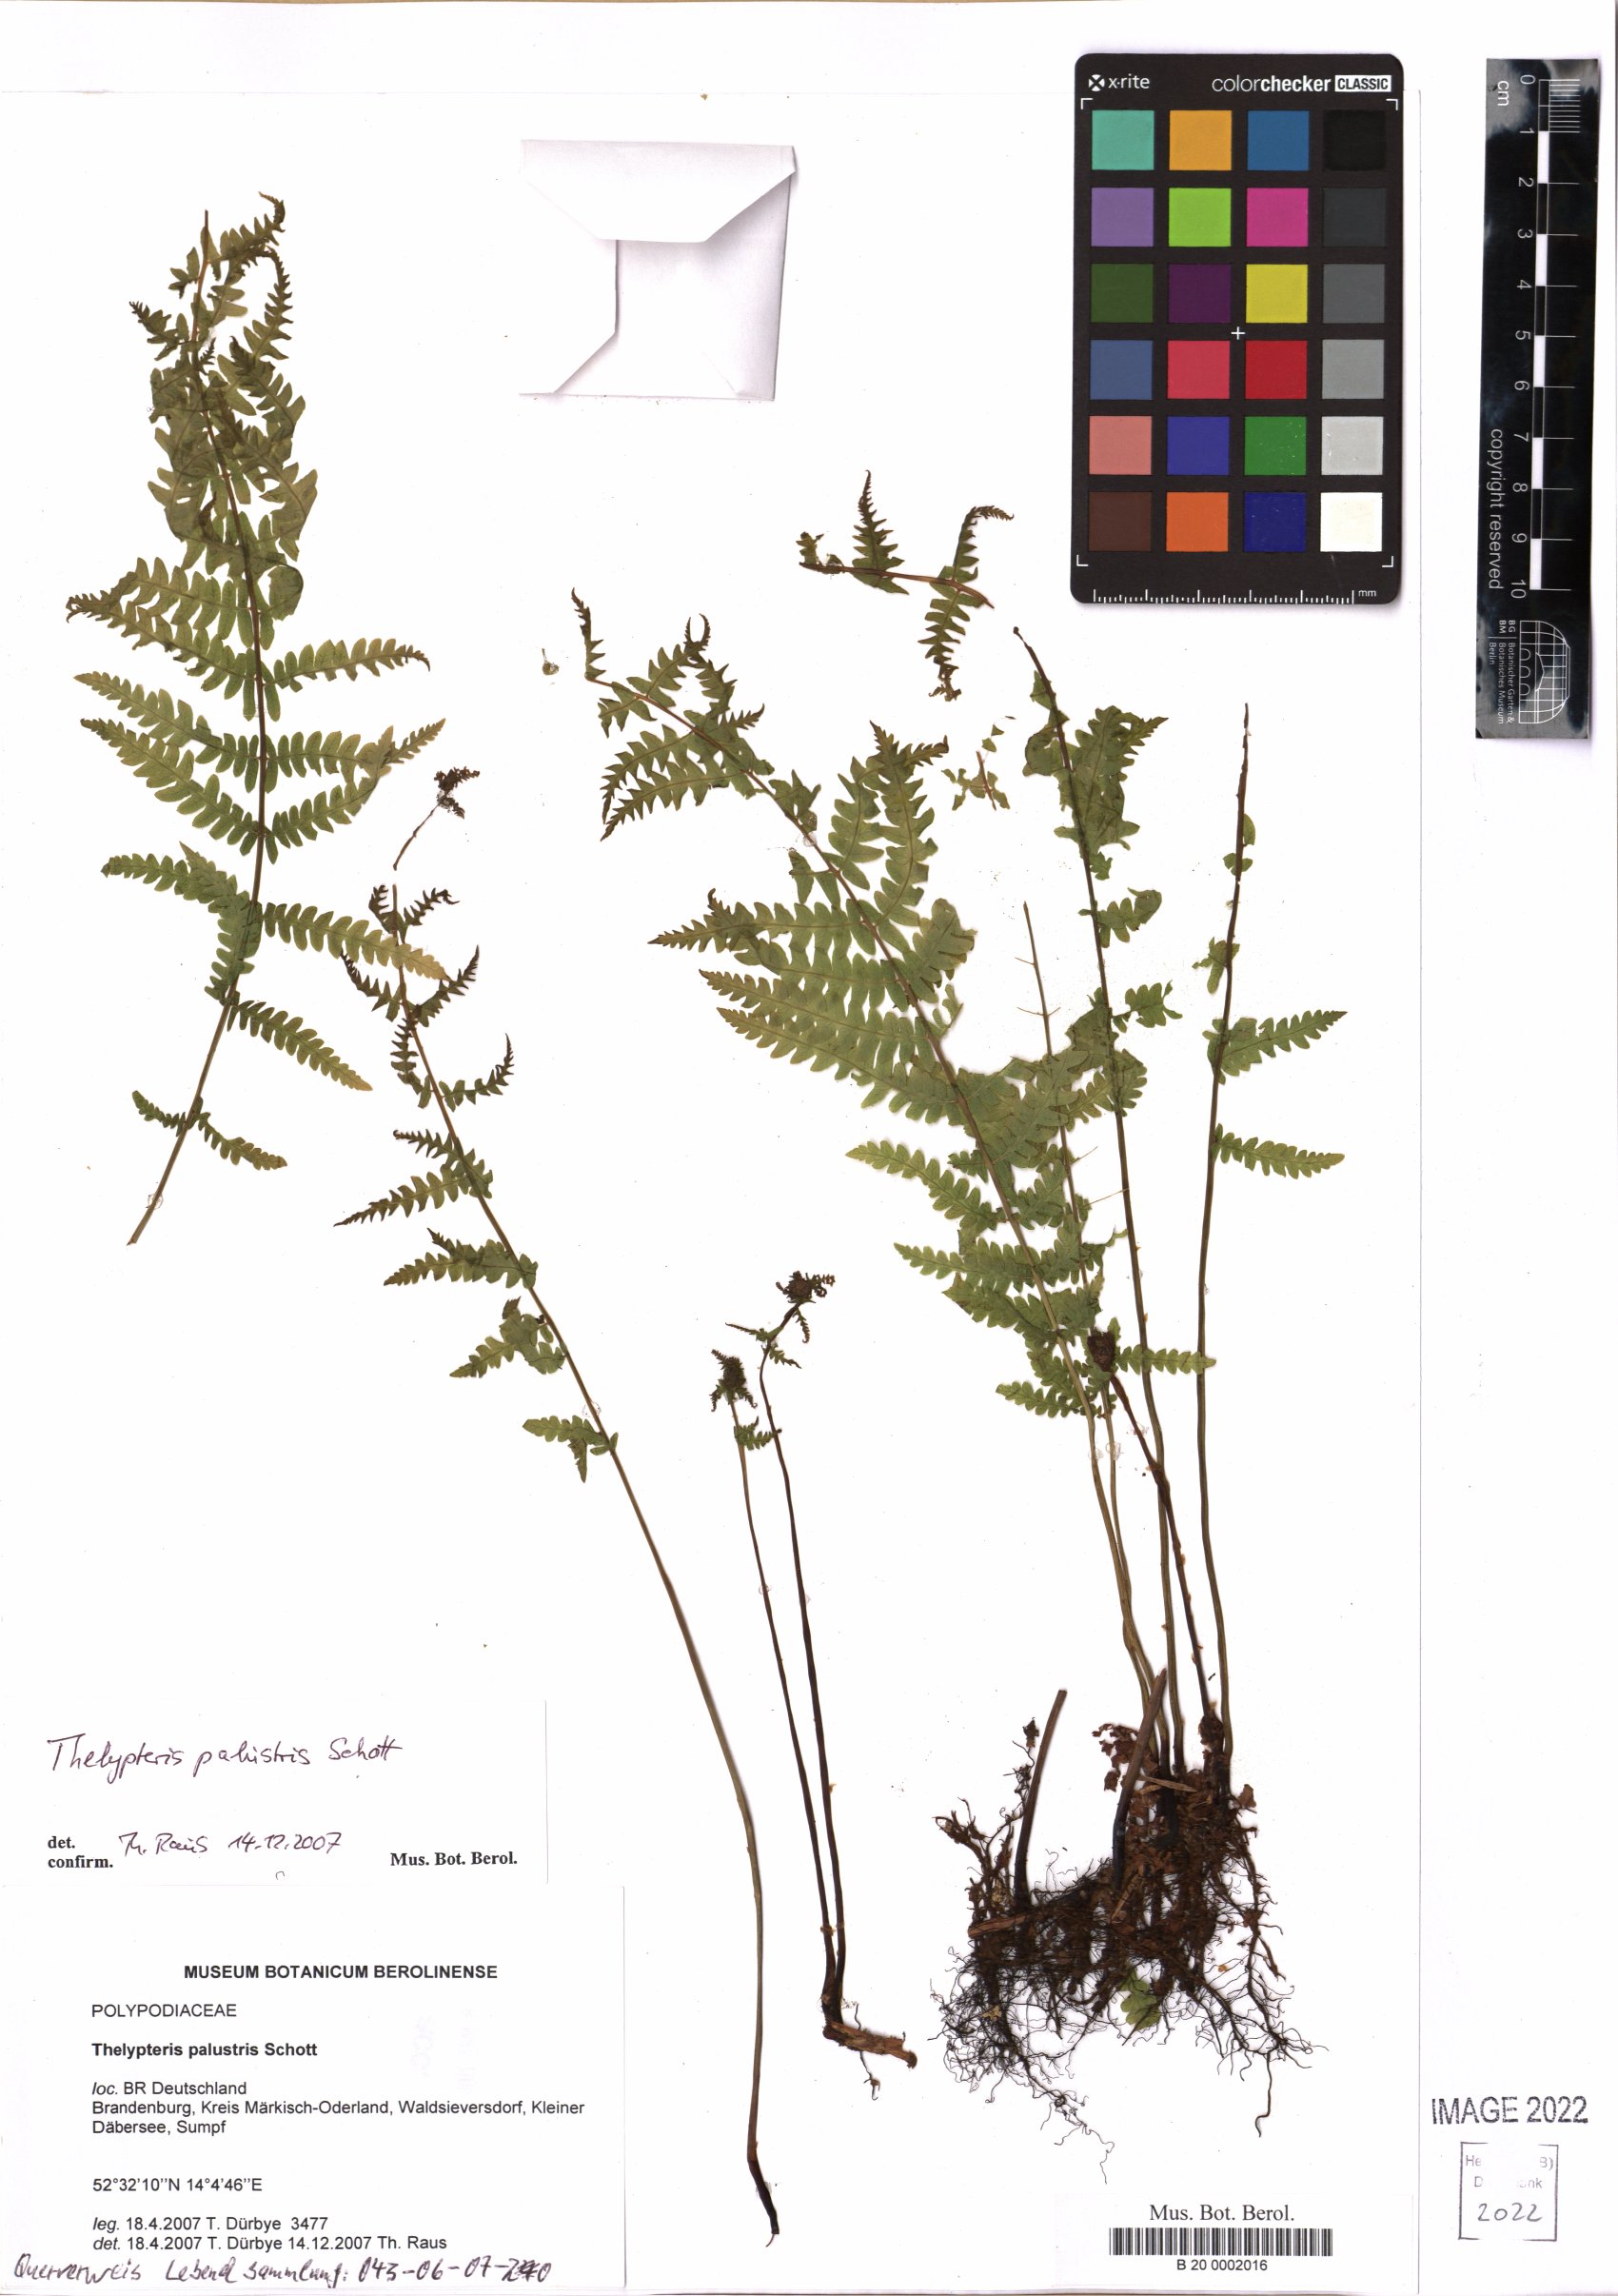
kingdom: Plantae
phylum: Tracheophyta
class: Polypodiopsida
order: Polypodiales
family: Thelypteridaceae
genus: Thelypteris
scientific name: Thelypteris palustris
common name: Marsh fern
